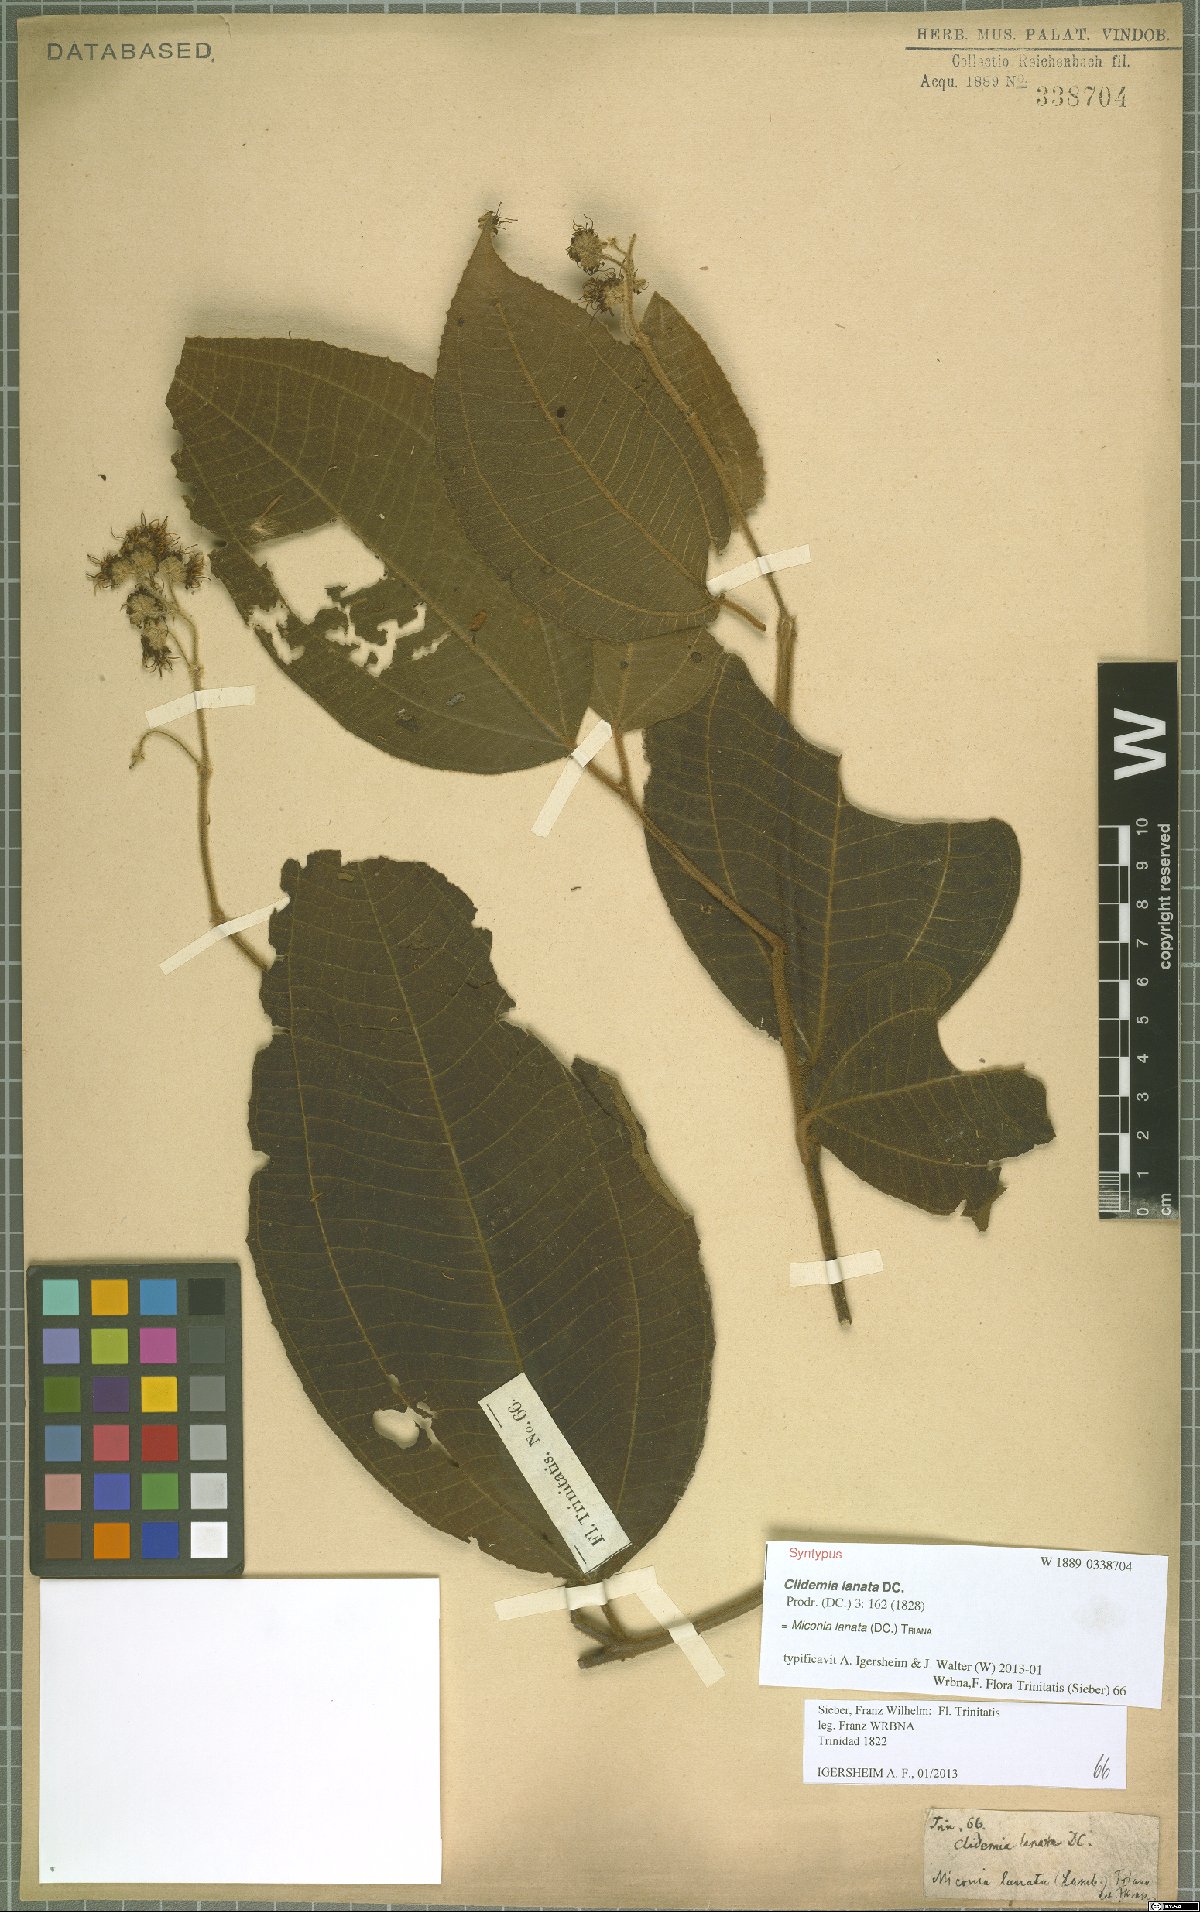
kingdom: Plantae
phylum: Tracheophyta
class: Magnoliopsida
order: Myrtales
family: Melastomataceae
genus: Miconia
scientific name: Miconia lanata
